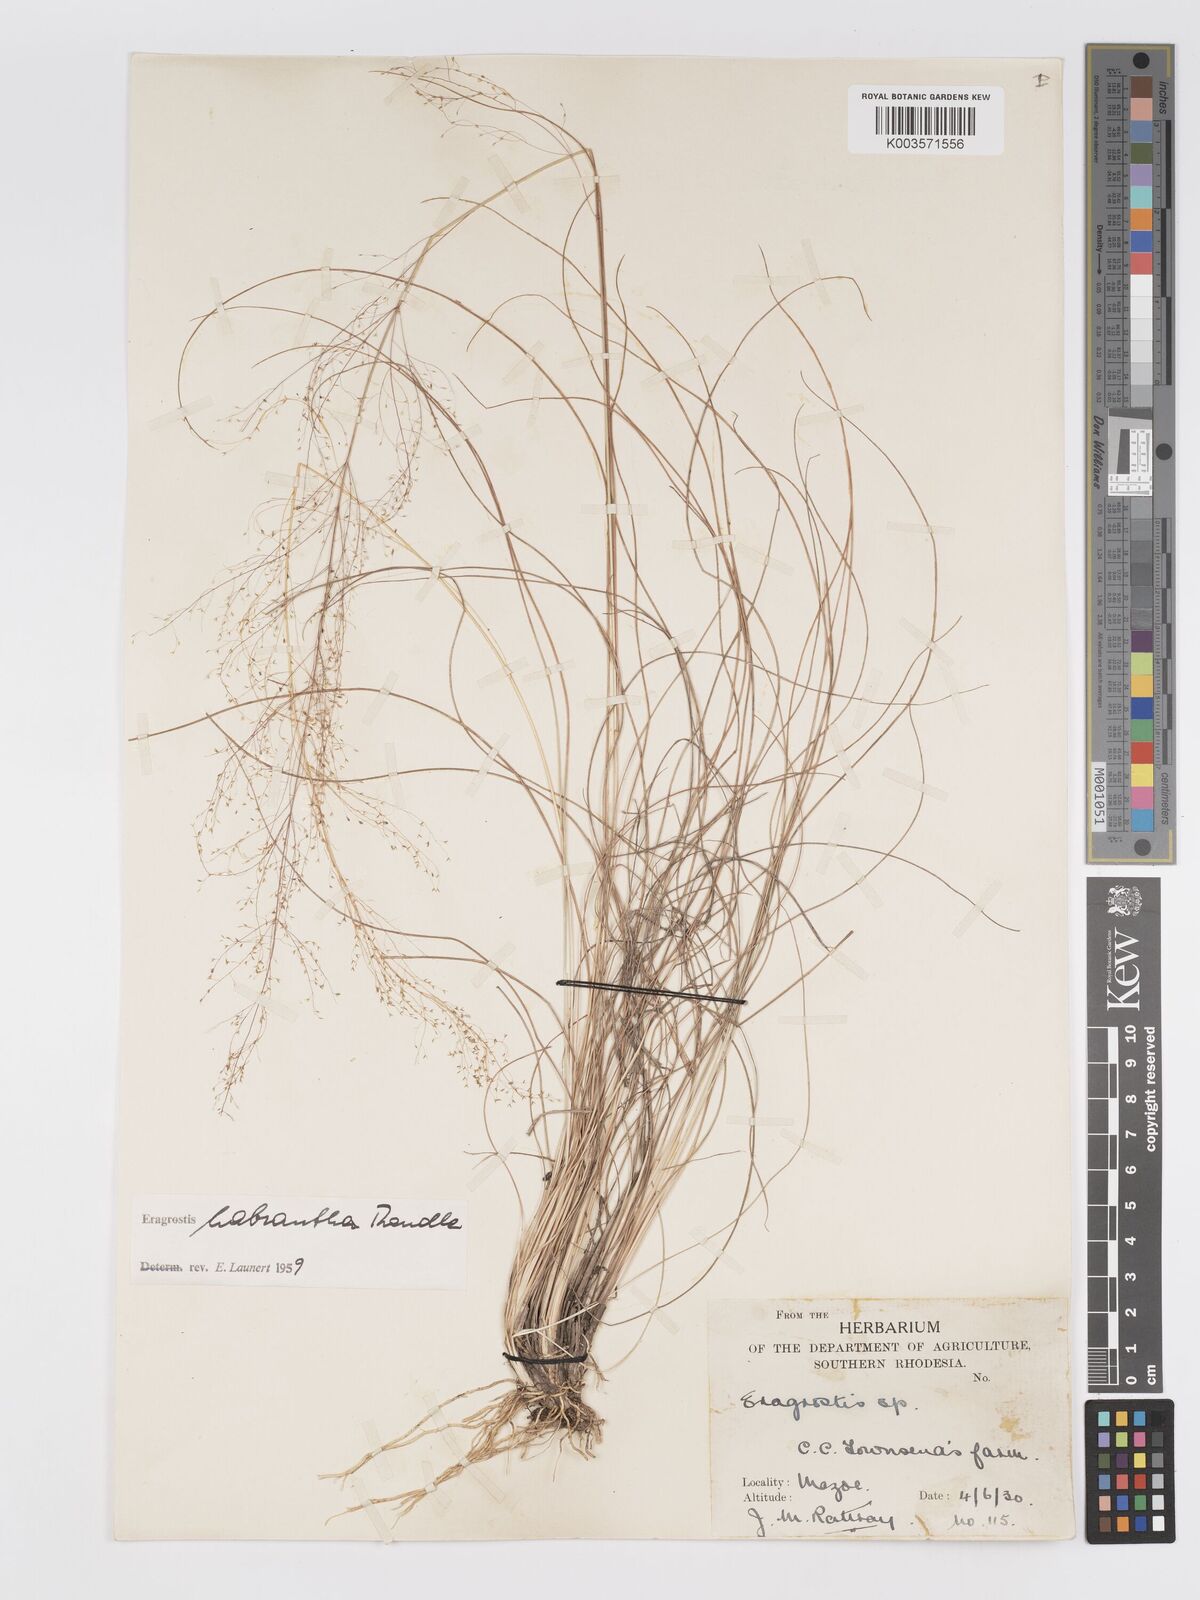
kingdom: Plantae
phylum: Tracheophyta
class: Liliopsida
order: Poales
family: Poaceae
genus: Eragrostis
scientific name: Eragrostis habrantha
